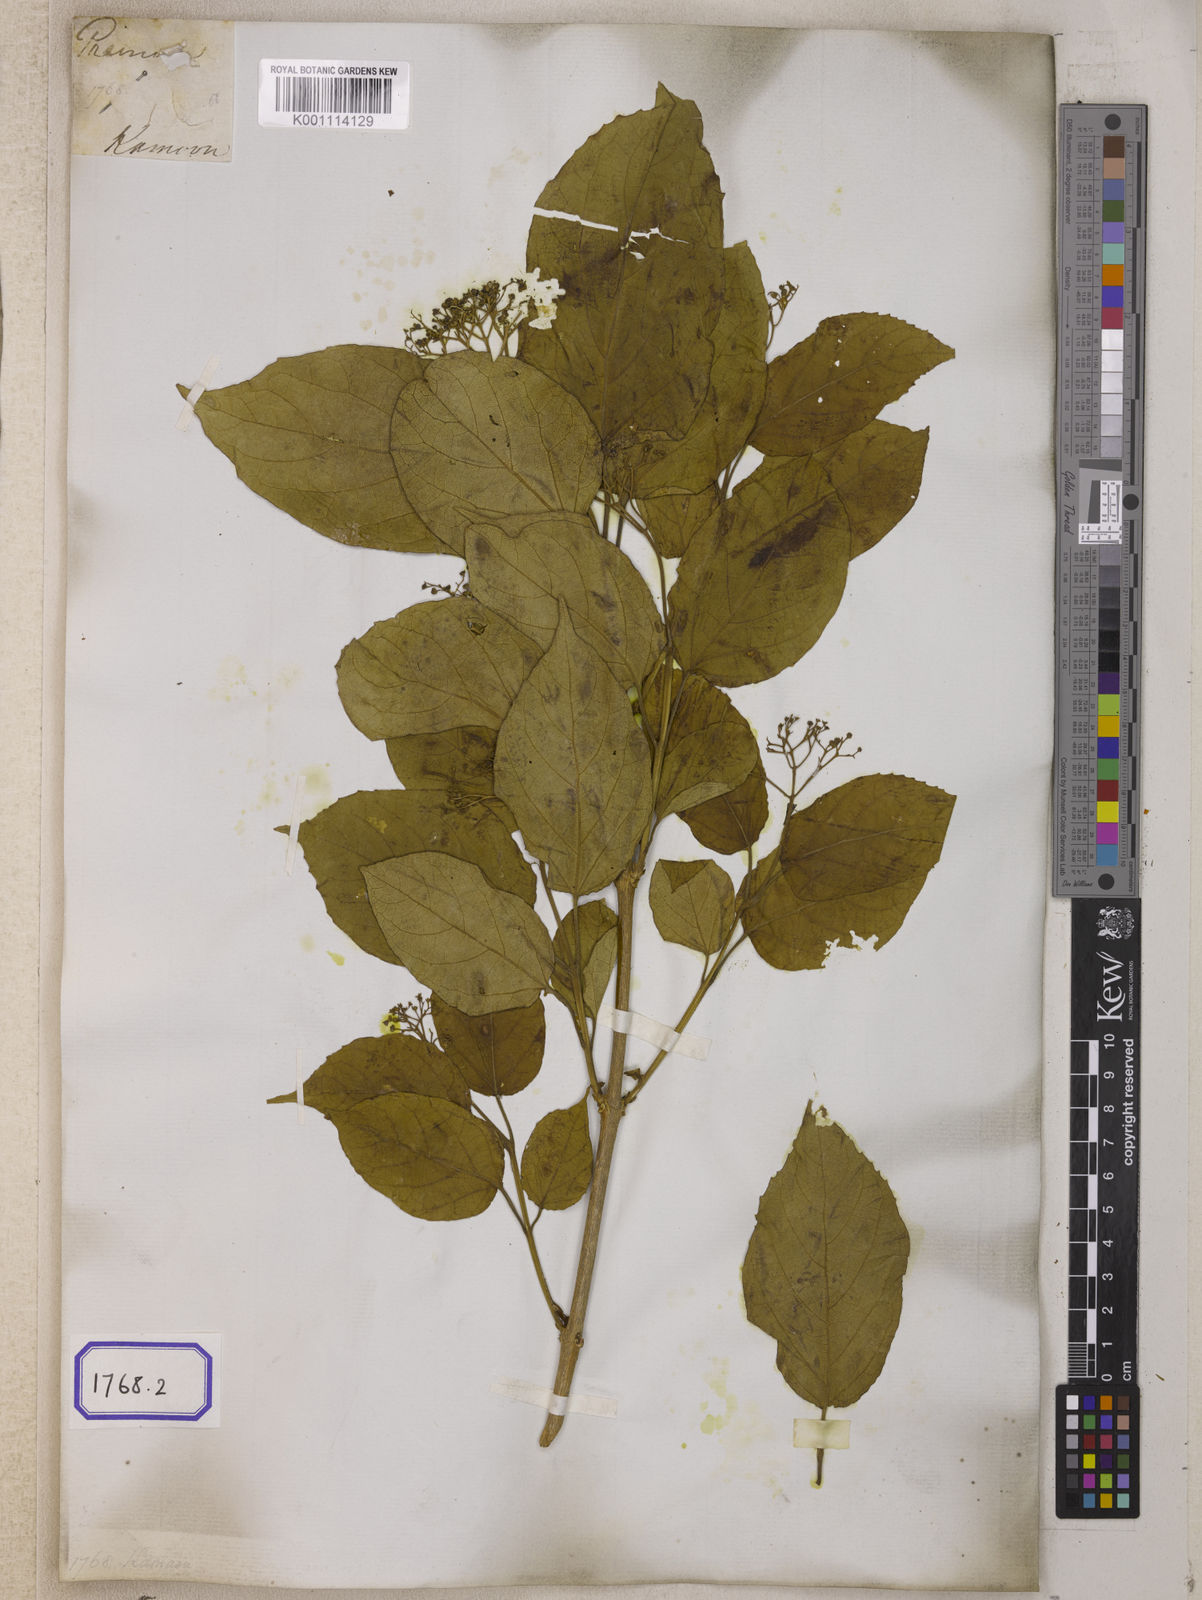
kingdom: Plantae
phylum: Tracheophyta
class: Magnoliopsida
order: Lamiales
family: Lamiaceae
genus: Premna
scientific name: Premna
